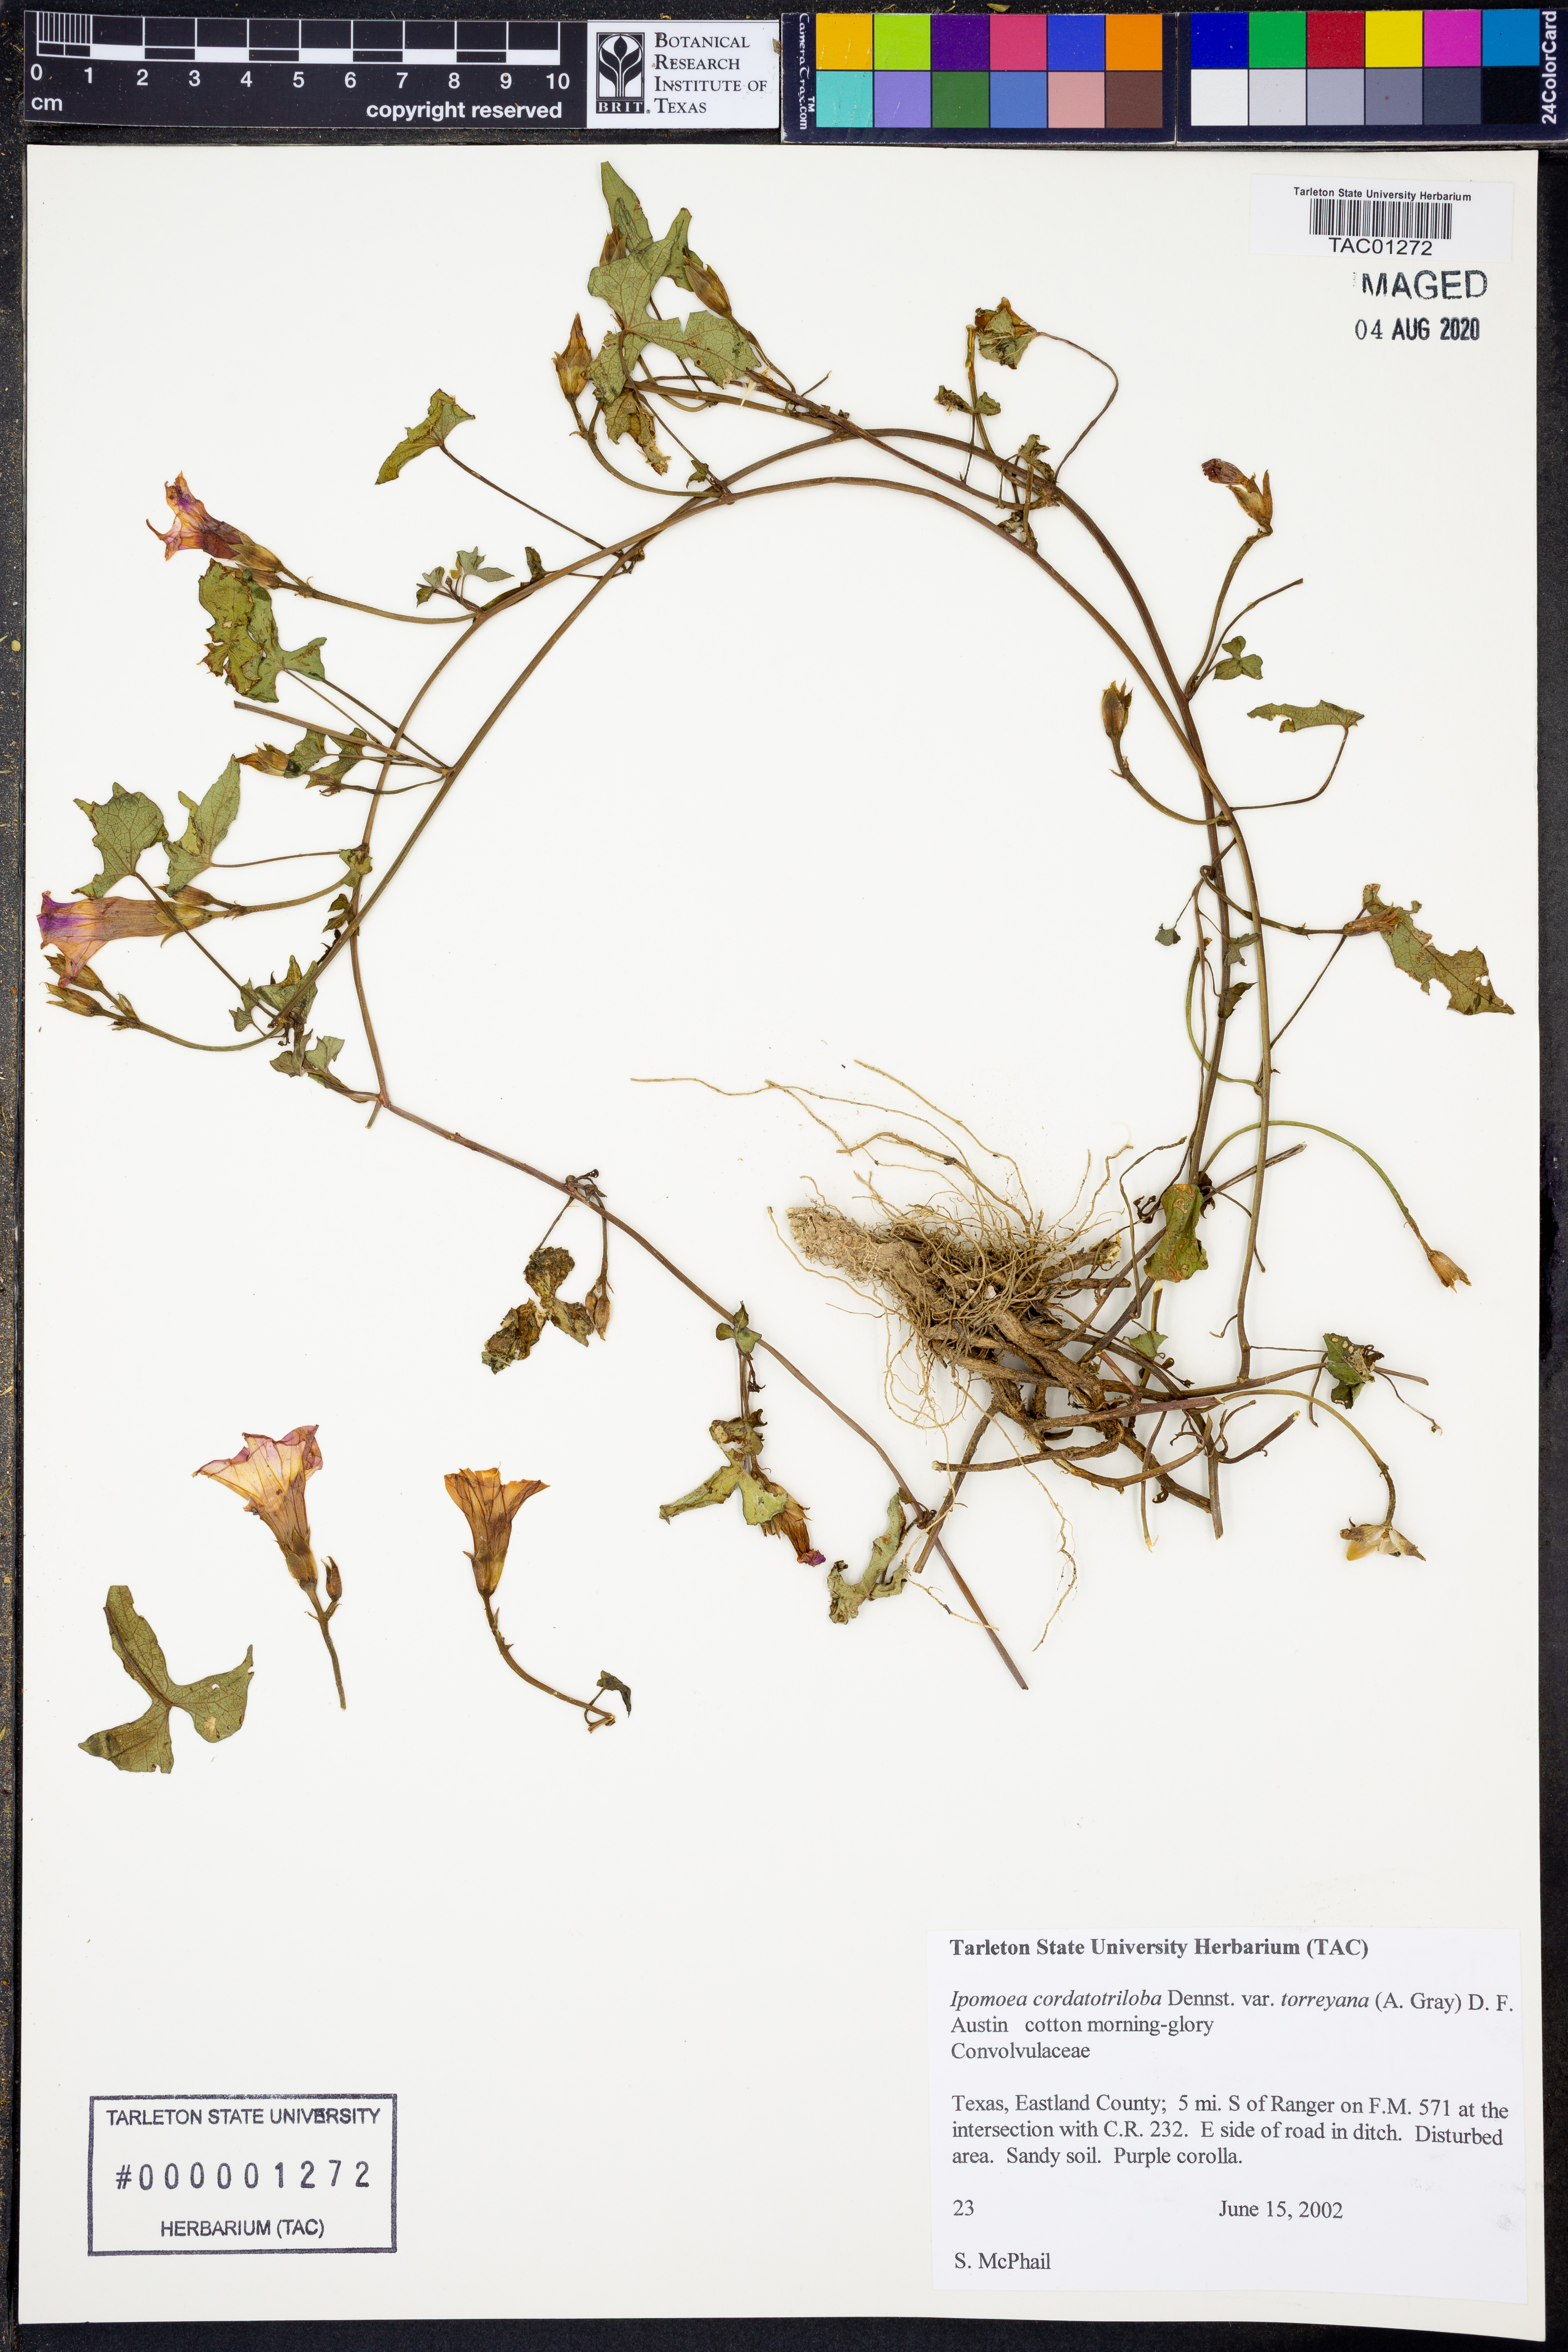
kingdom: Plantae
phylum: Tracheophyta
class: Magnoliopsida
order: Solanales
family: Convolvulaceae
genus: Ipomoea
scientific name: Ipomoea cordatotriloba
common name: Cotton morning glory
